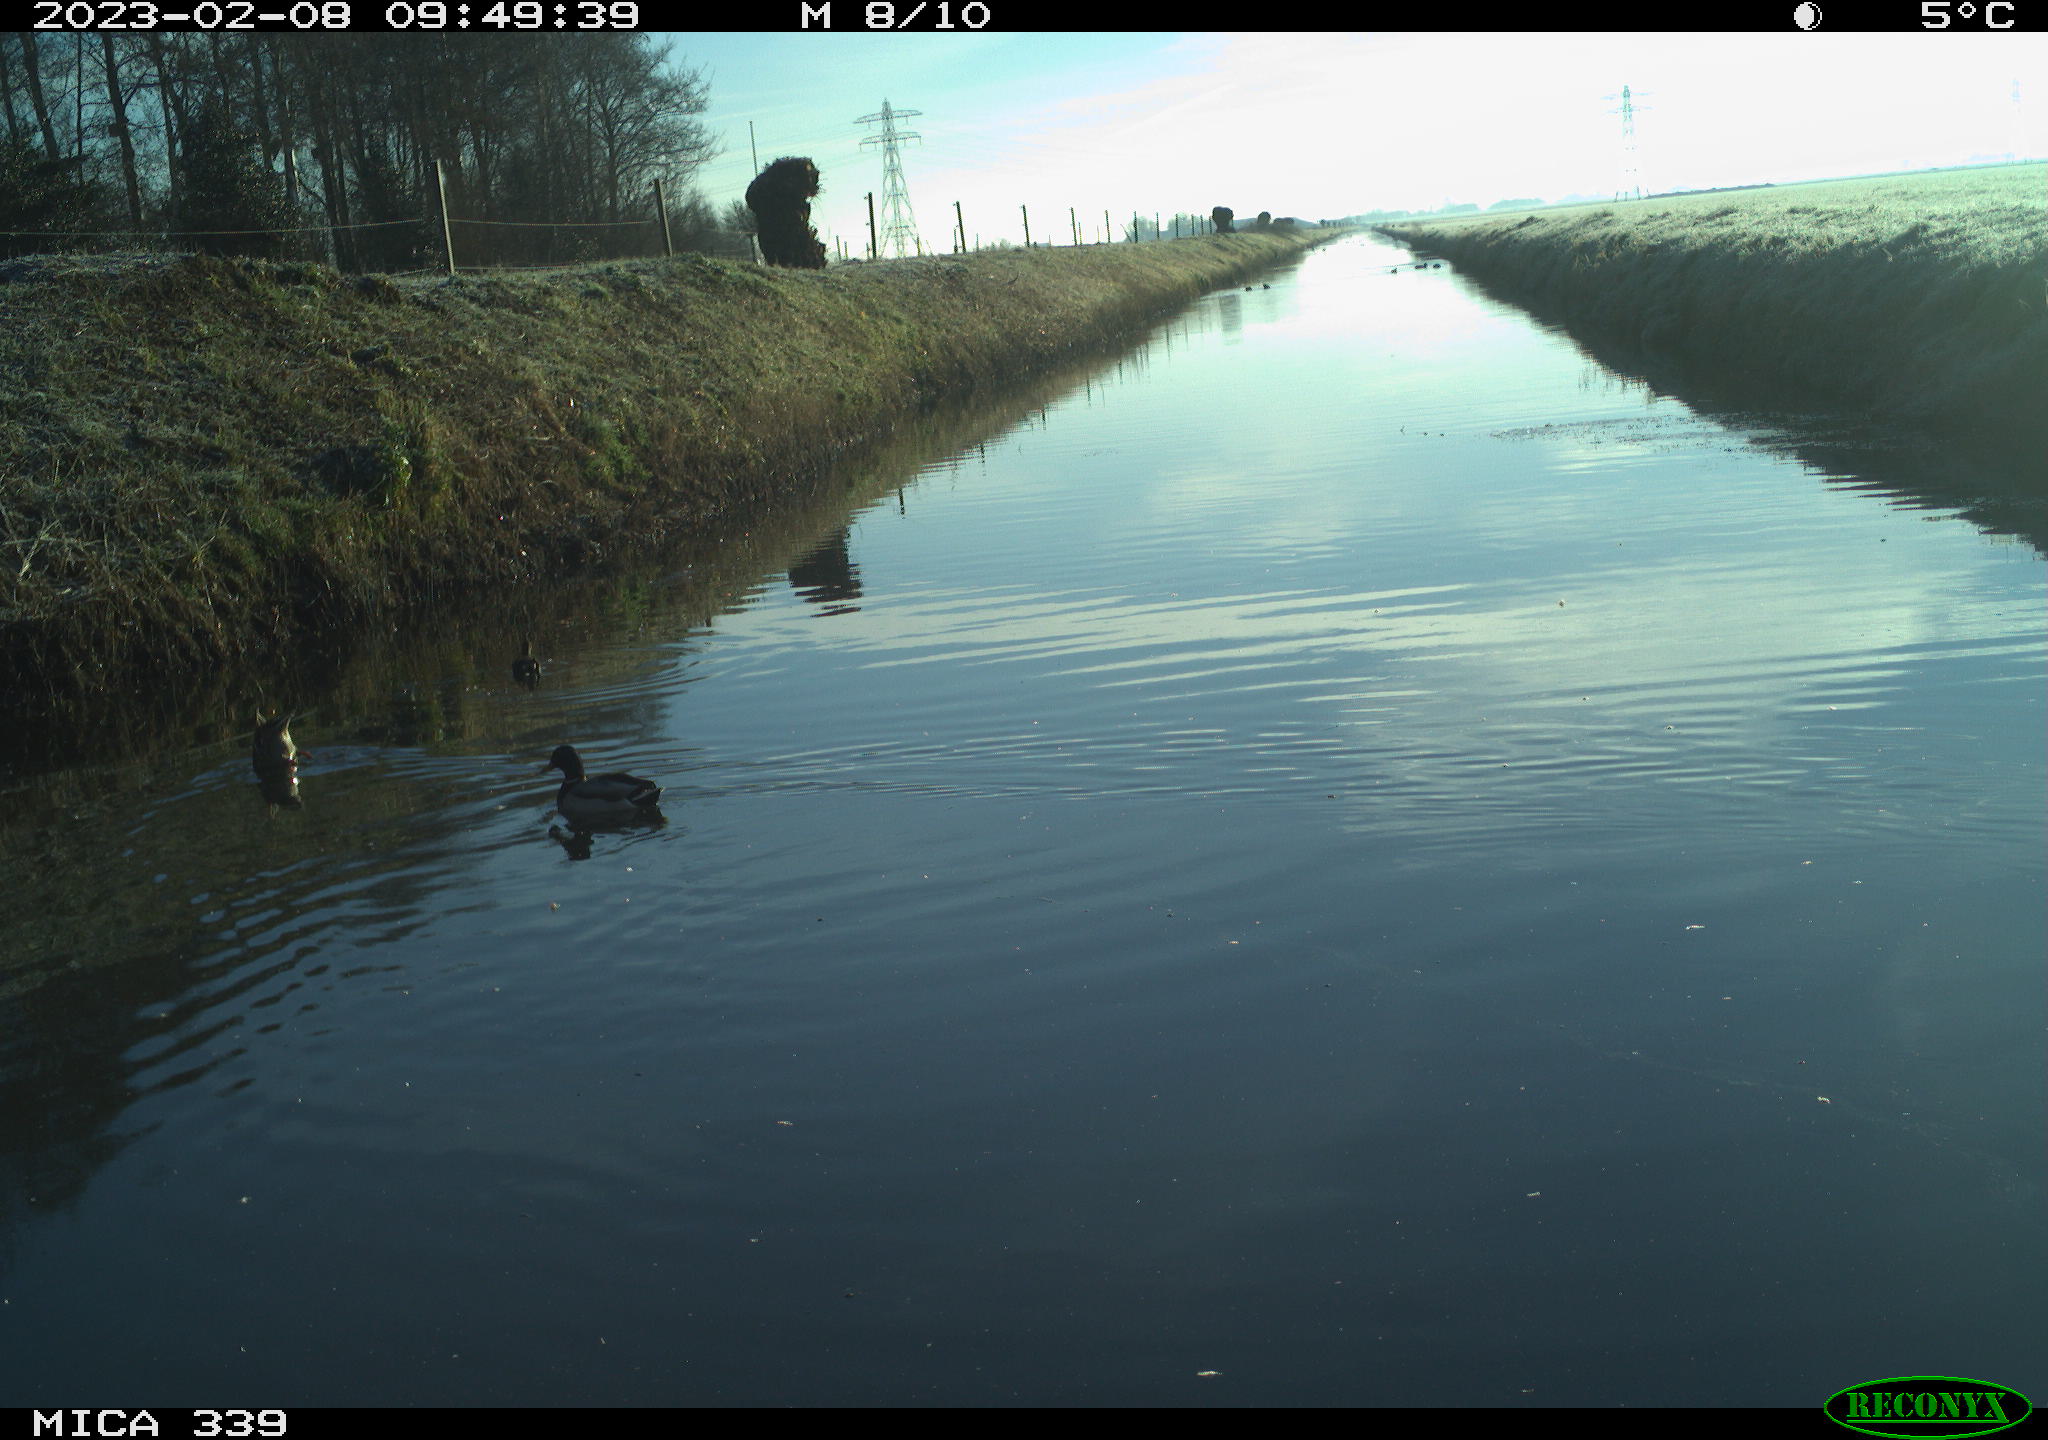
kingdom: Animalia
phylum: Chordata
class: Aves
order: Anseriformes
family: Anatidae
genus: Anas
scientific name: Anas
